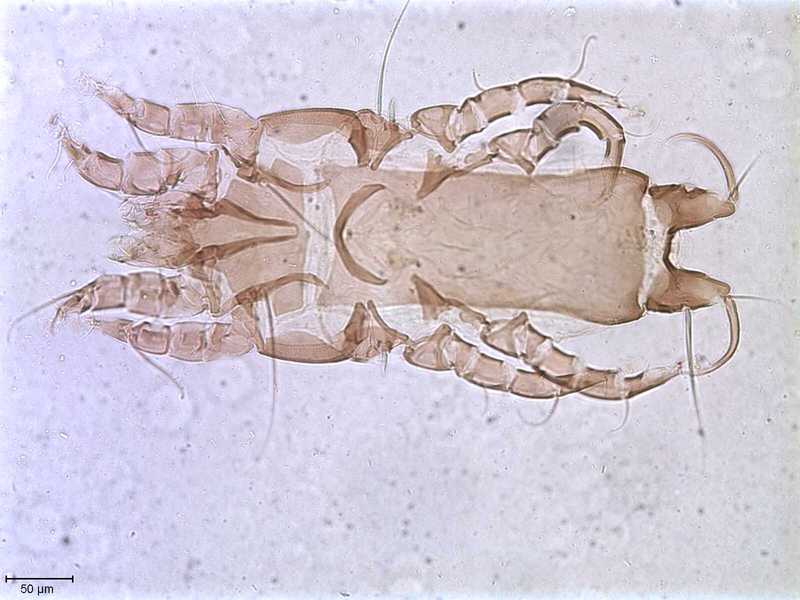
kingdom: Animalia
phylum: Arthropoda
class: Arachnida
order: Sarcoptiformes
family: Proctophyllodidae
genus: Proctophyllodes
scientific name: Proctophyllodes
